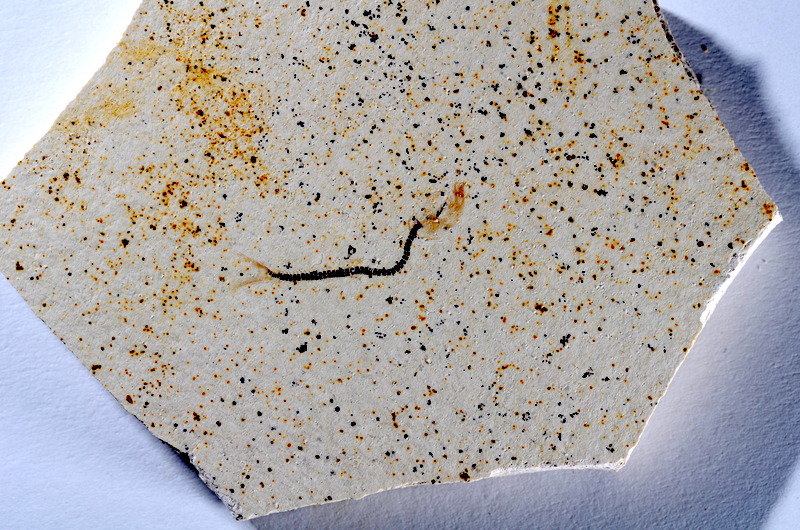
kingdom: Animalia
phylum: Chordata
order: Salmoniformes
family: Orthogonikleithridae
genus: Orthogonikleithrus
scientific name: Orthogonikleithrus hoelli
